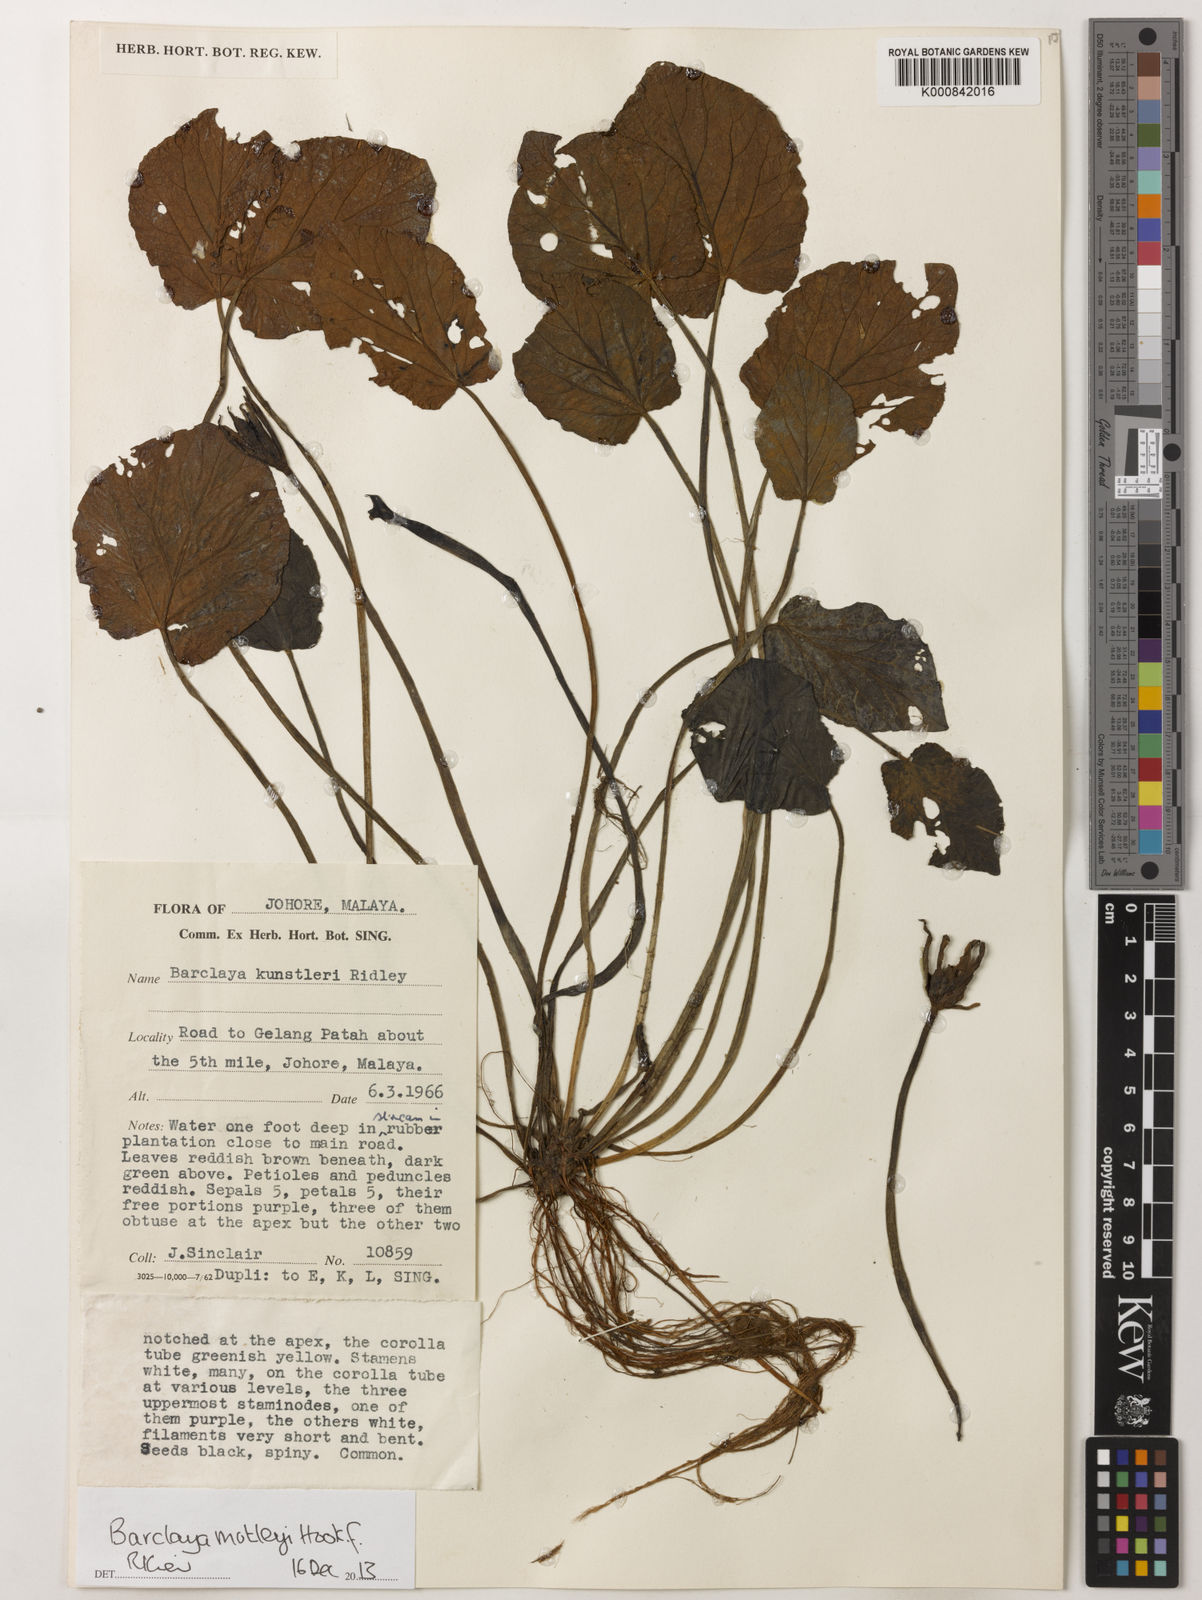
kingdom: Plantae
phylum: Tracheophyta
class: Magnoliopsida
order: Nymphaeales
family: Nymphaeaceae
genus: Barclaya
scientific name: Barclaya motleyi
